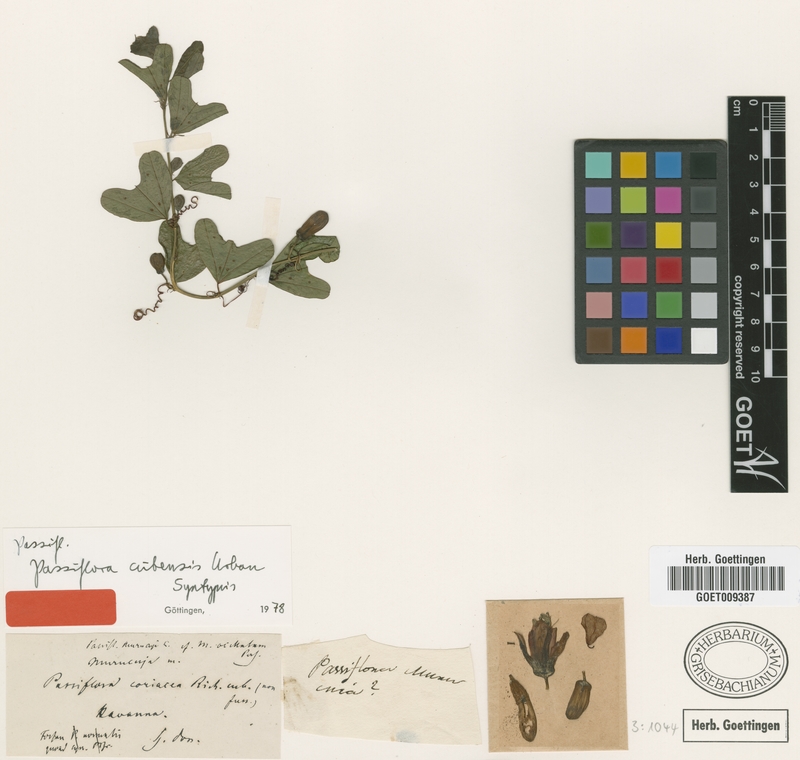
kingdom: Plantae
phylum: Tracheophyta
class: Magnoliopsida
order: Malpighiales
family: Passifloraceae
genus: Passiflora
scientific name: Passiflora cubensis
